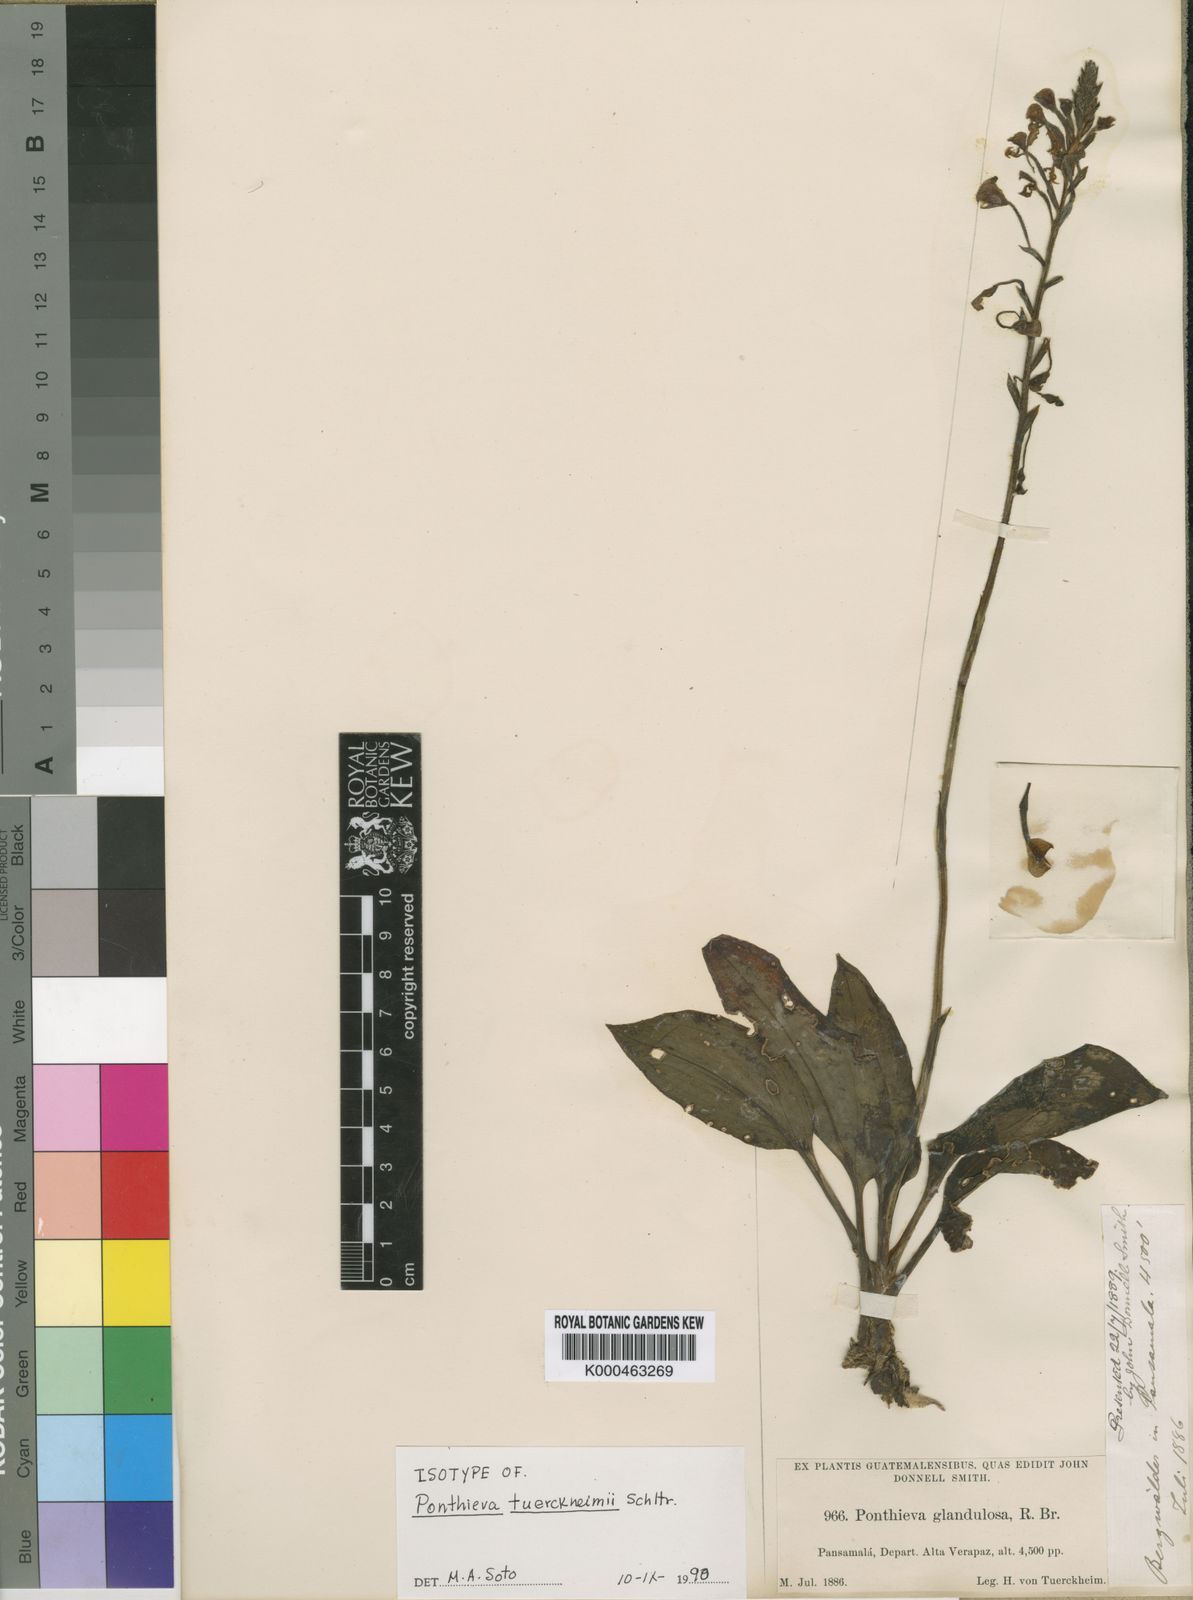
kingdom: Plantae
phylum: Tracheophyta
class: Liliopsida
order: Asparagales
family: Orchidaceae
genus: Ponthieva
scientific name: Ponthieva tuerckheimii
